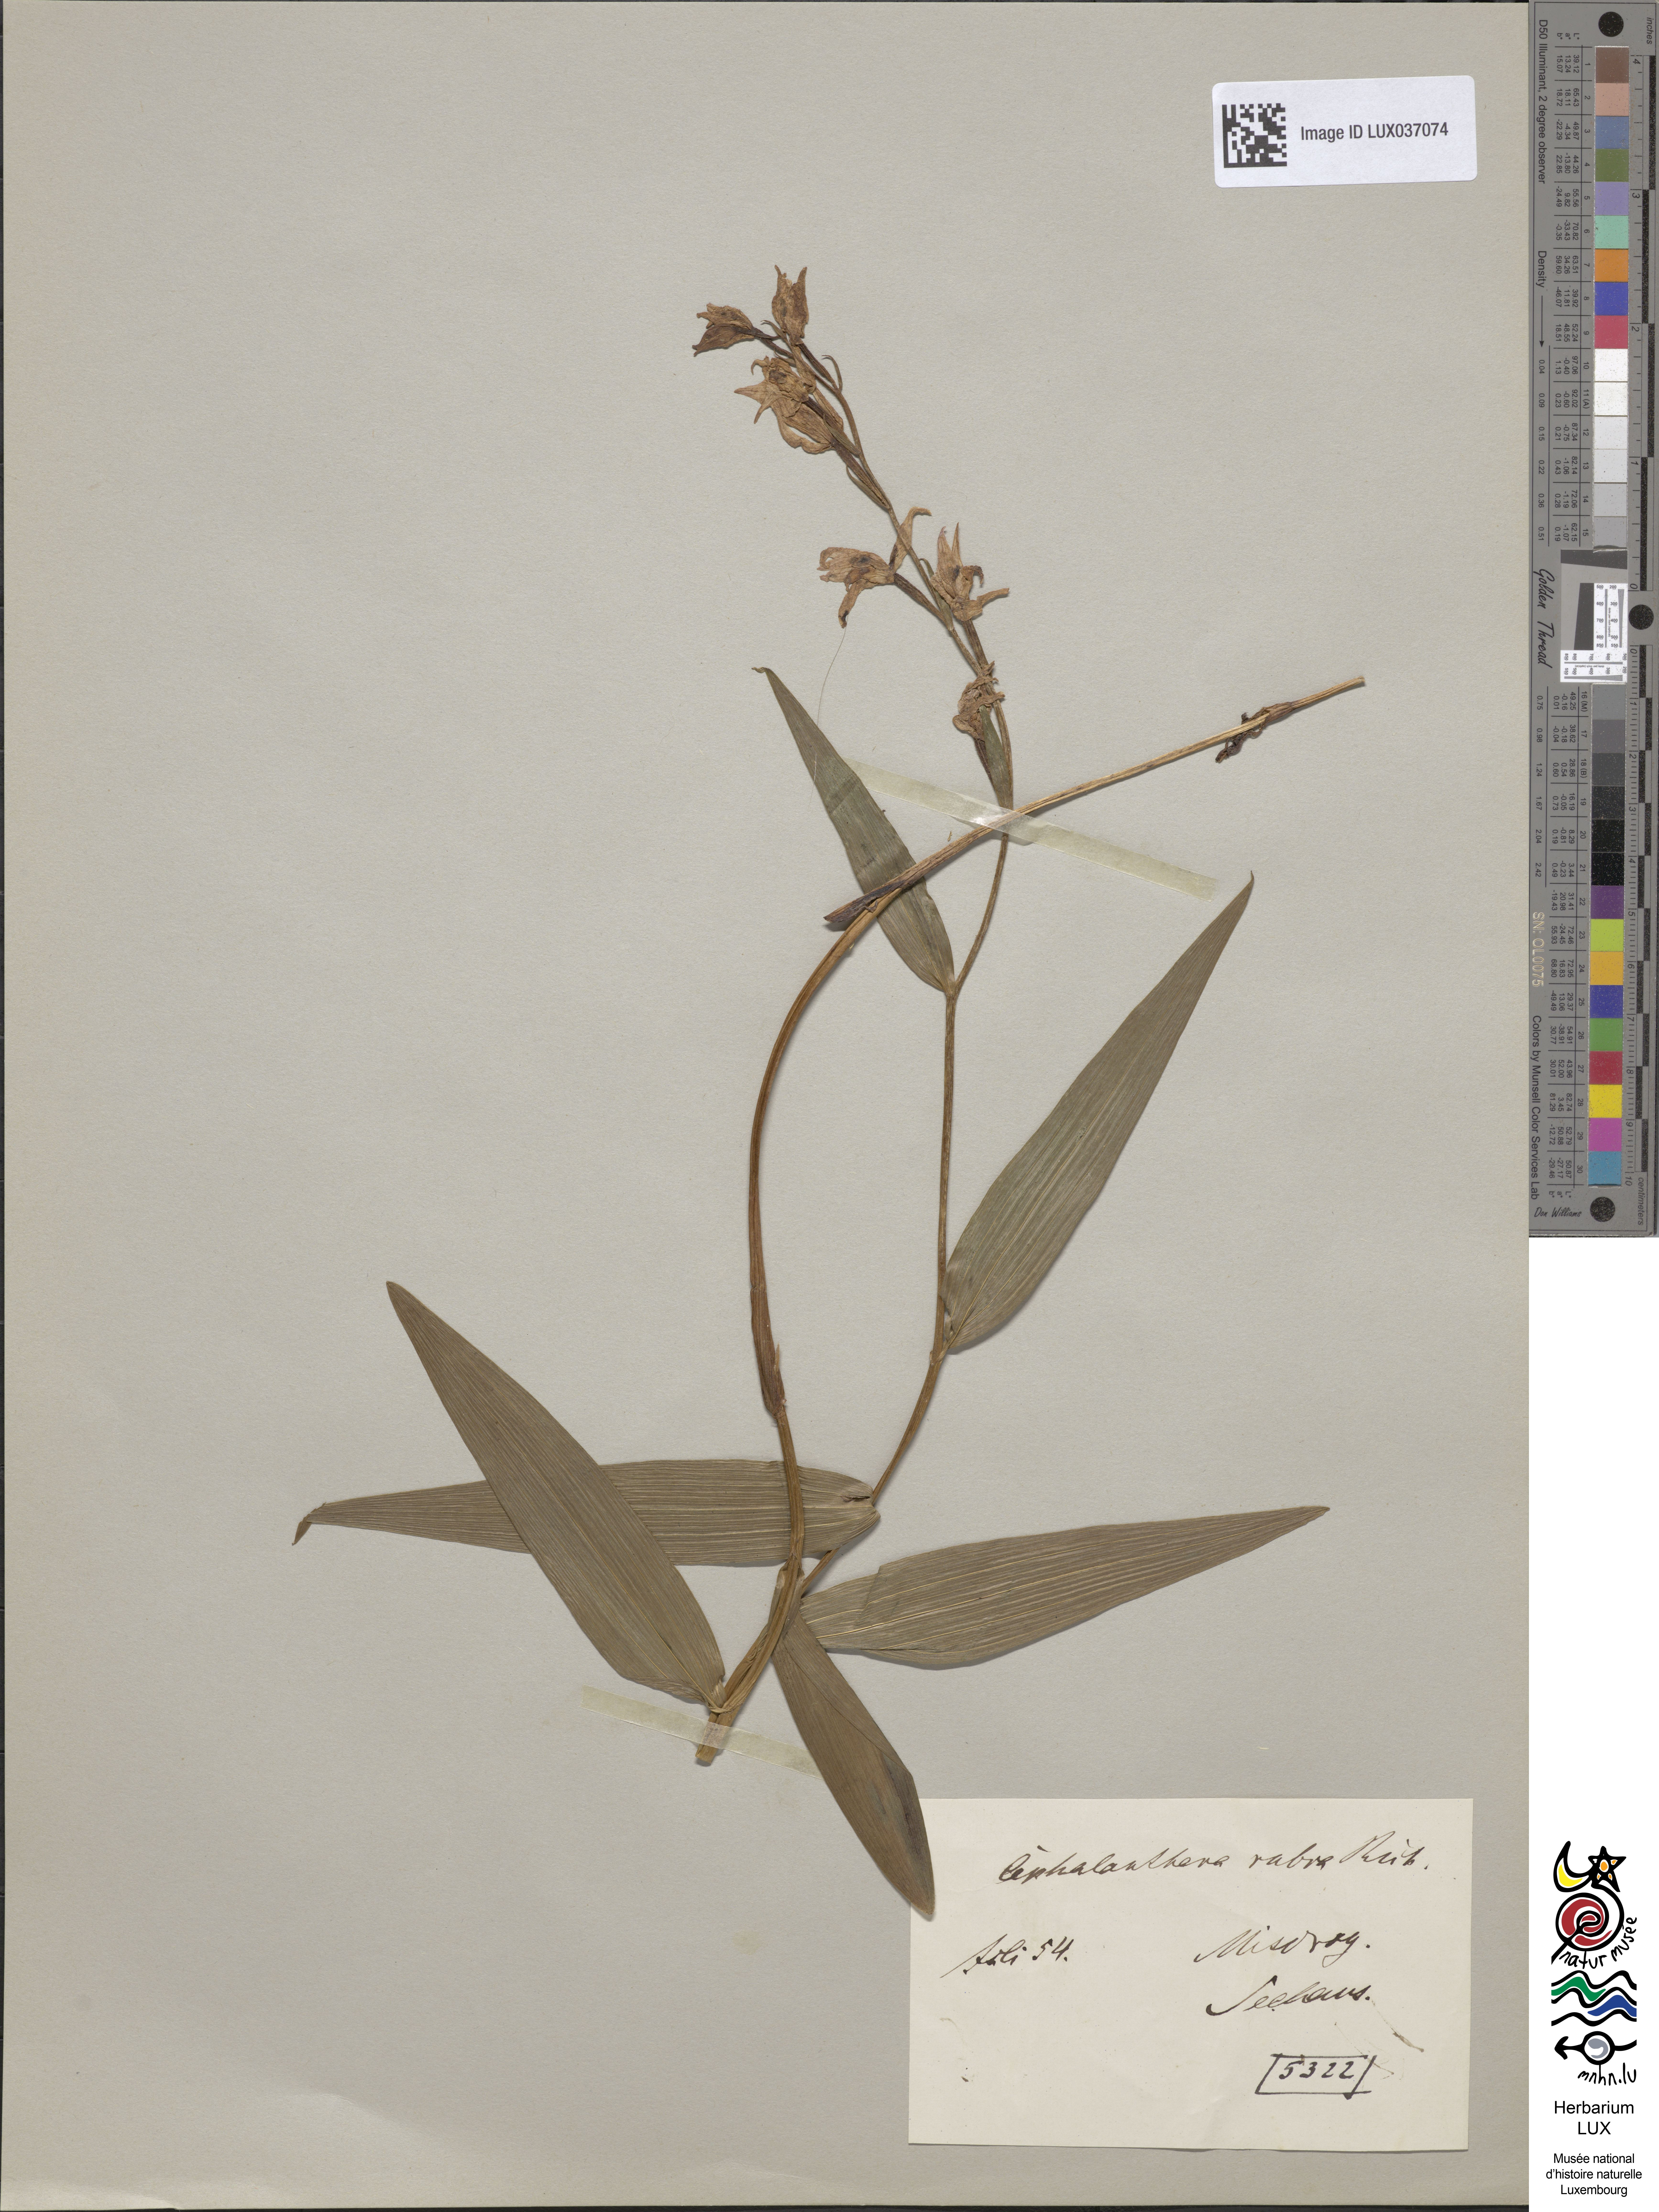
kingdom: Plantae
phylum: Tracheophyta
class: Liliopsida
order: Asparagales
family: Orchidaceae
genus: Cephalanthera
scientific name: Cephalanthera rubra
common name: Red helleborine
